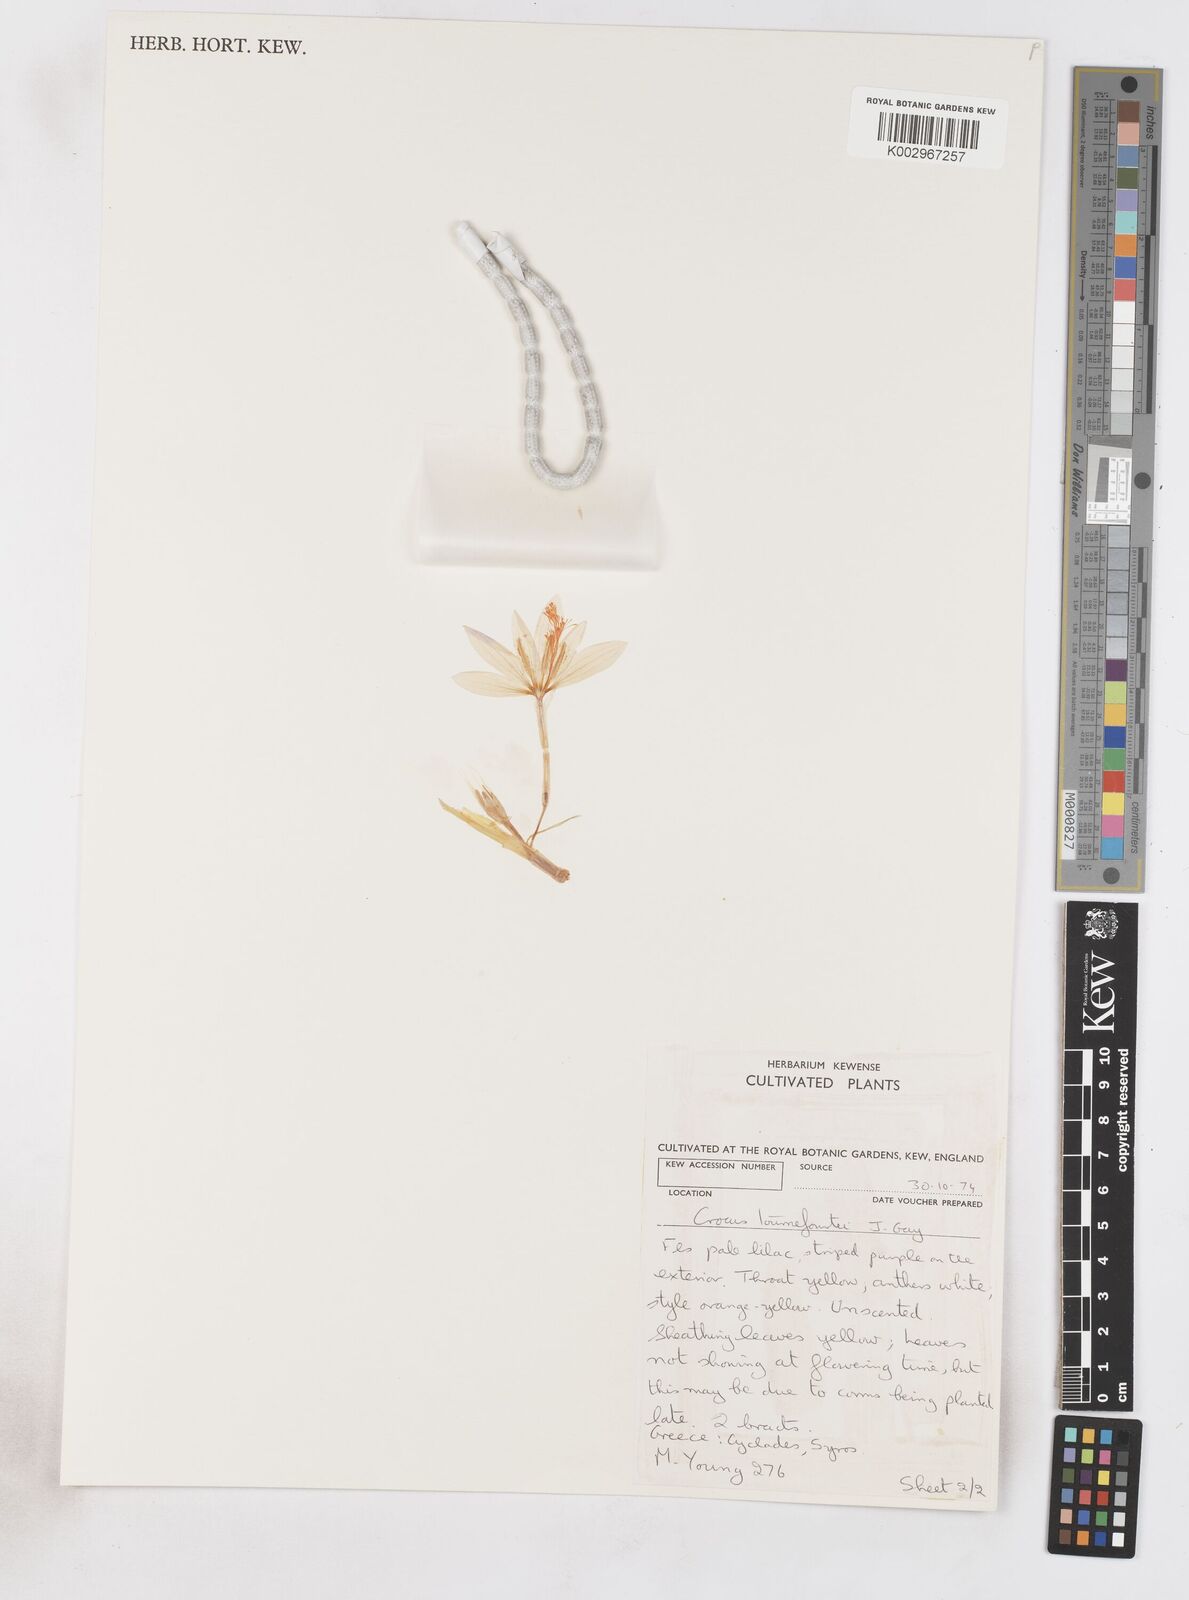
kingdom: Plantae
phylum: Tracheophyta
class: Liliopsida
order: Asparagales
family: Iridaceae
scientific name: Iridaceae
